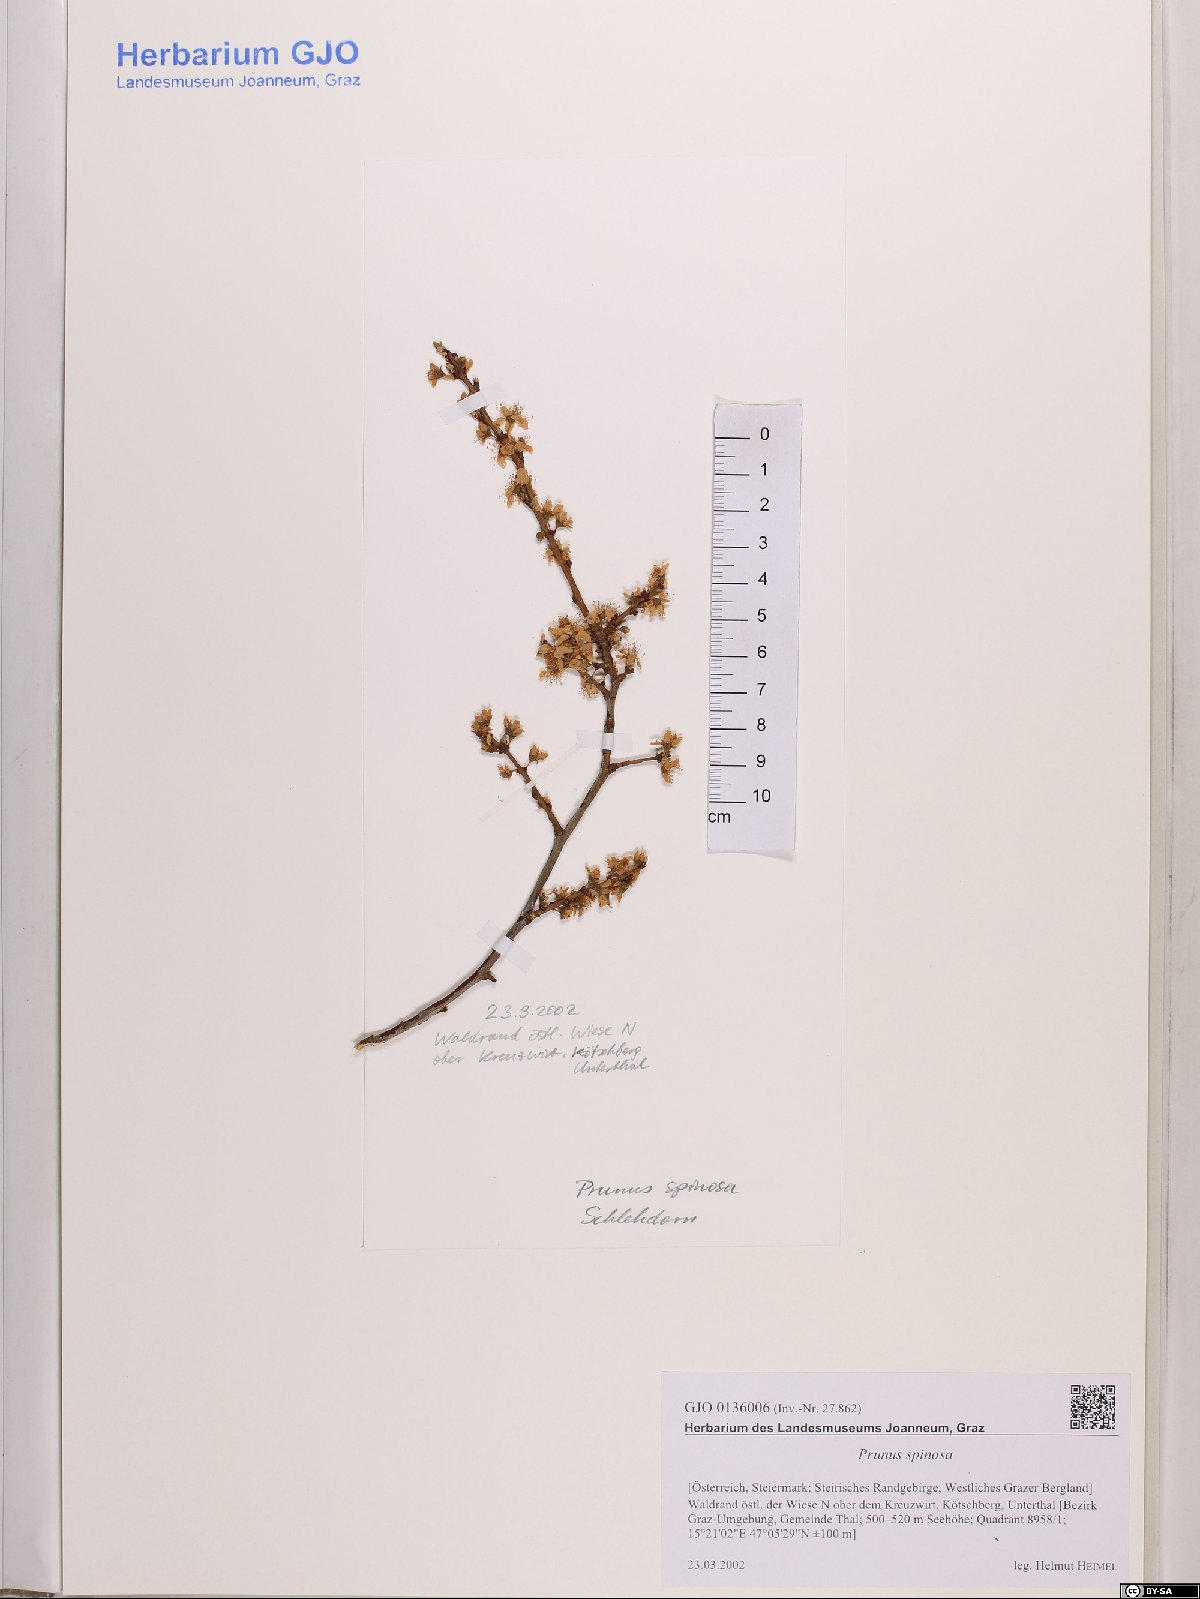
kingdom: Plantae
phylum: Tracheophyta
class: Magnoliopsida
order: Rosales
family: Rosaceae
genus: Prunus
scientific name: Prunus spinosa
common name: Blackthorn
